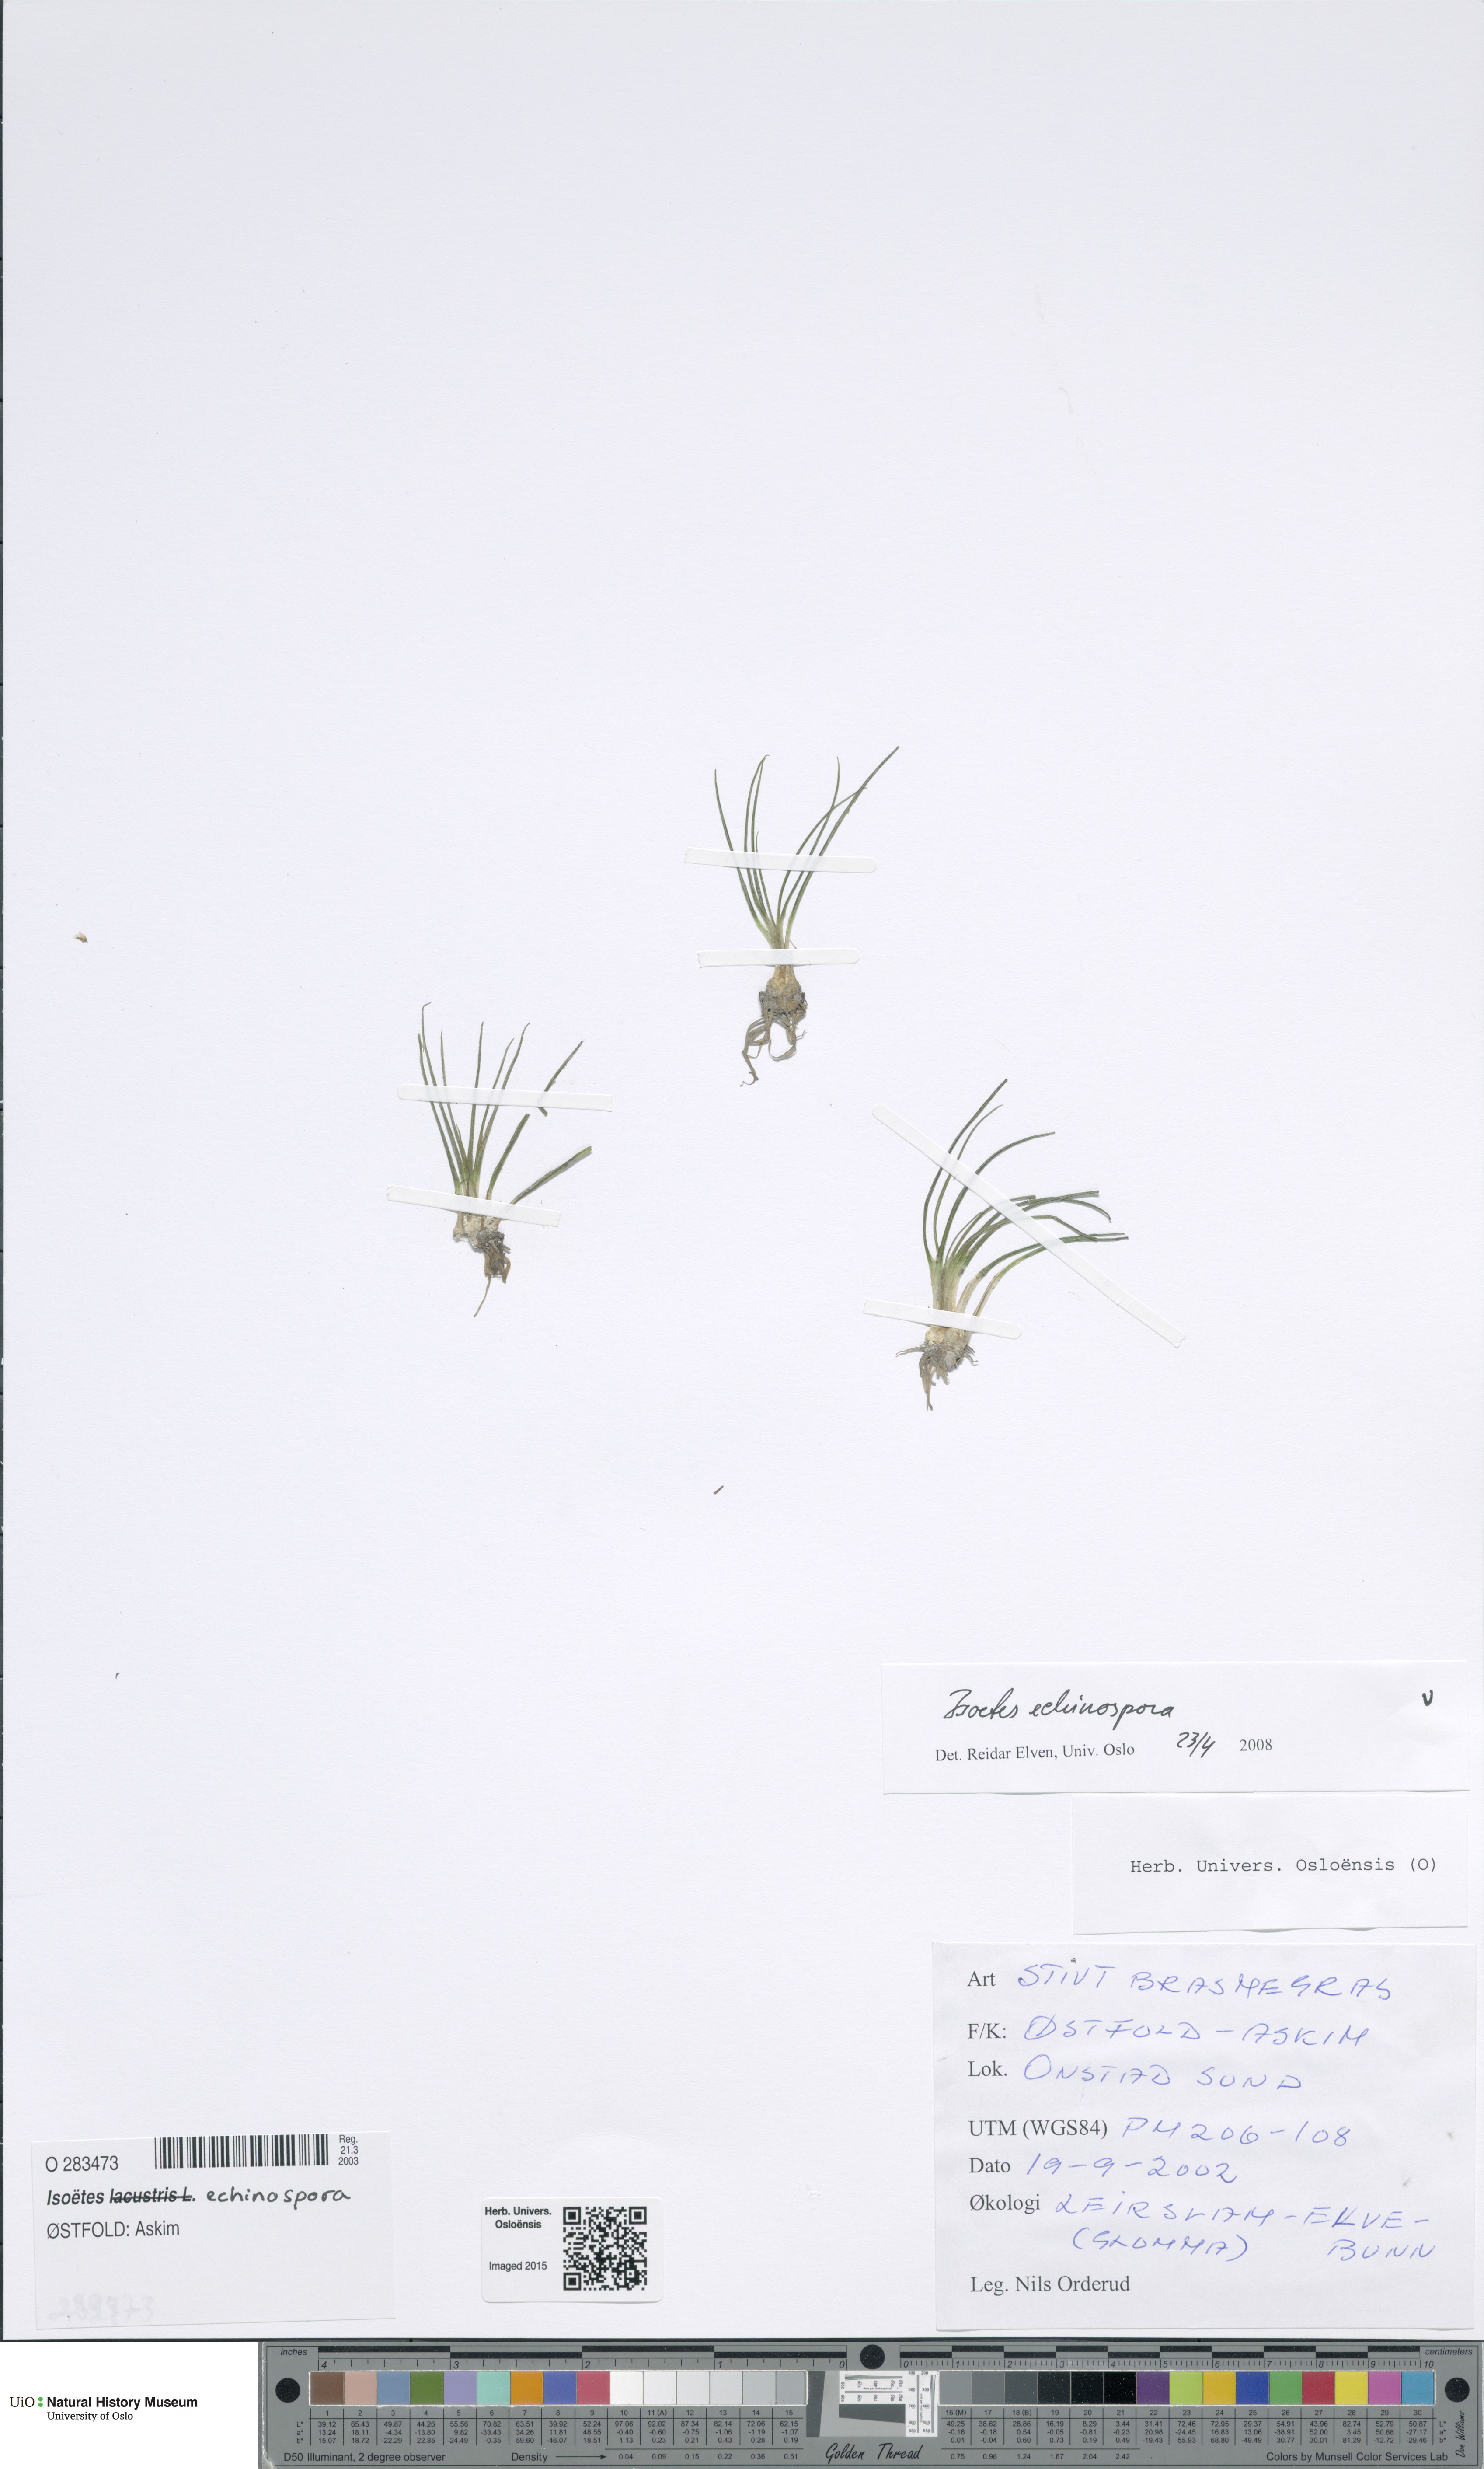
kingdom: Plantae
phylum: Tracheophyta
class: Lycopodiopsida
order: Isoetales
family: Isoetaceae
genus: Isoetes
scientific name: Isoetes echinospora
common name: Spring quillwort
